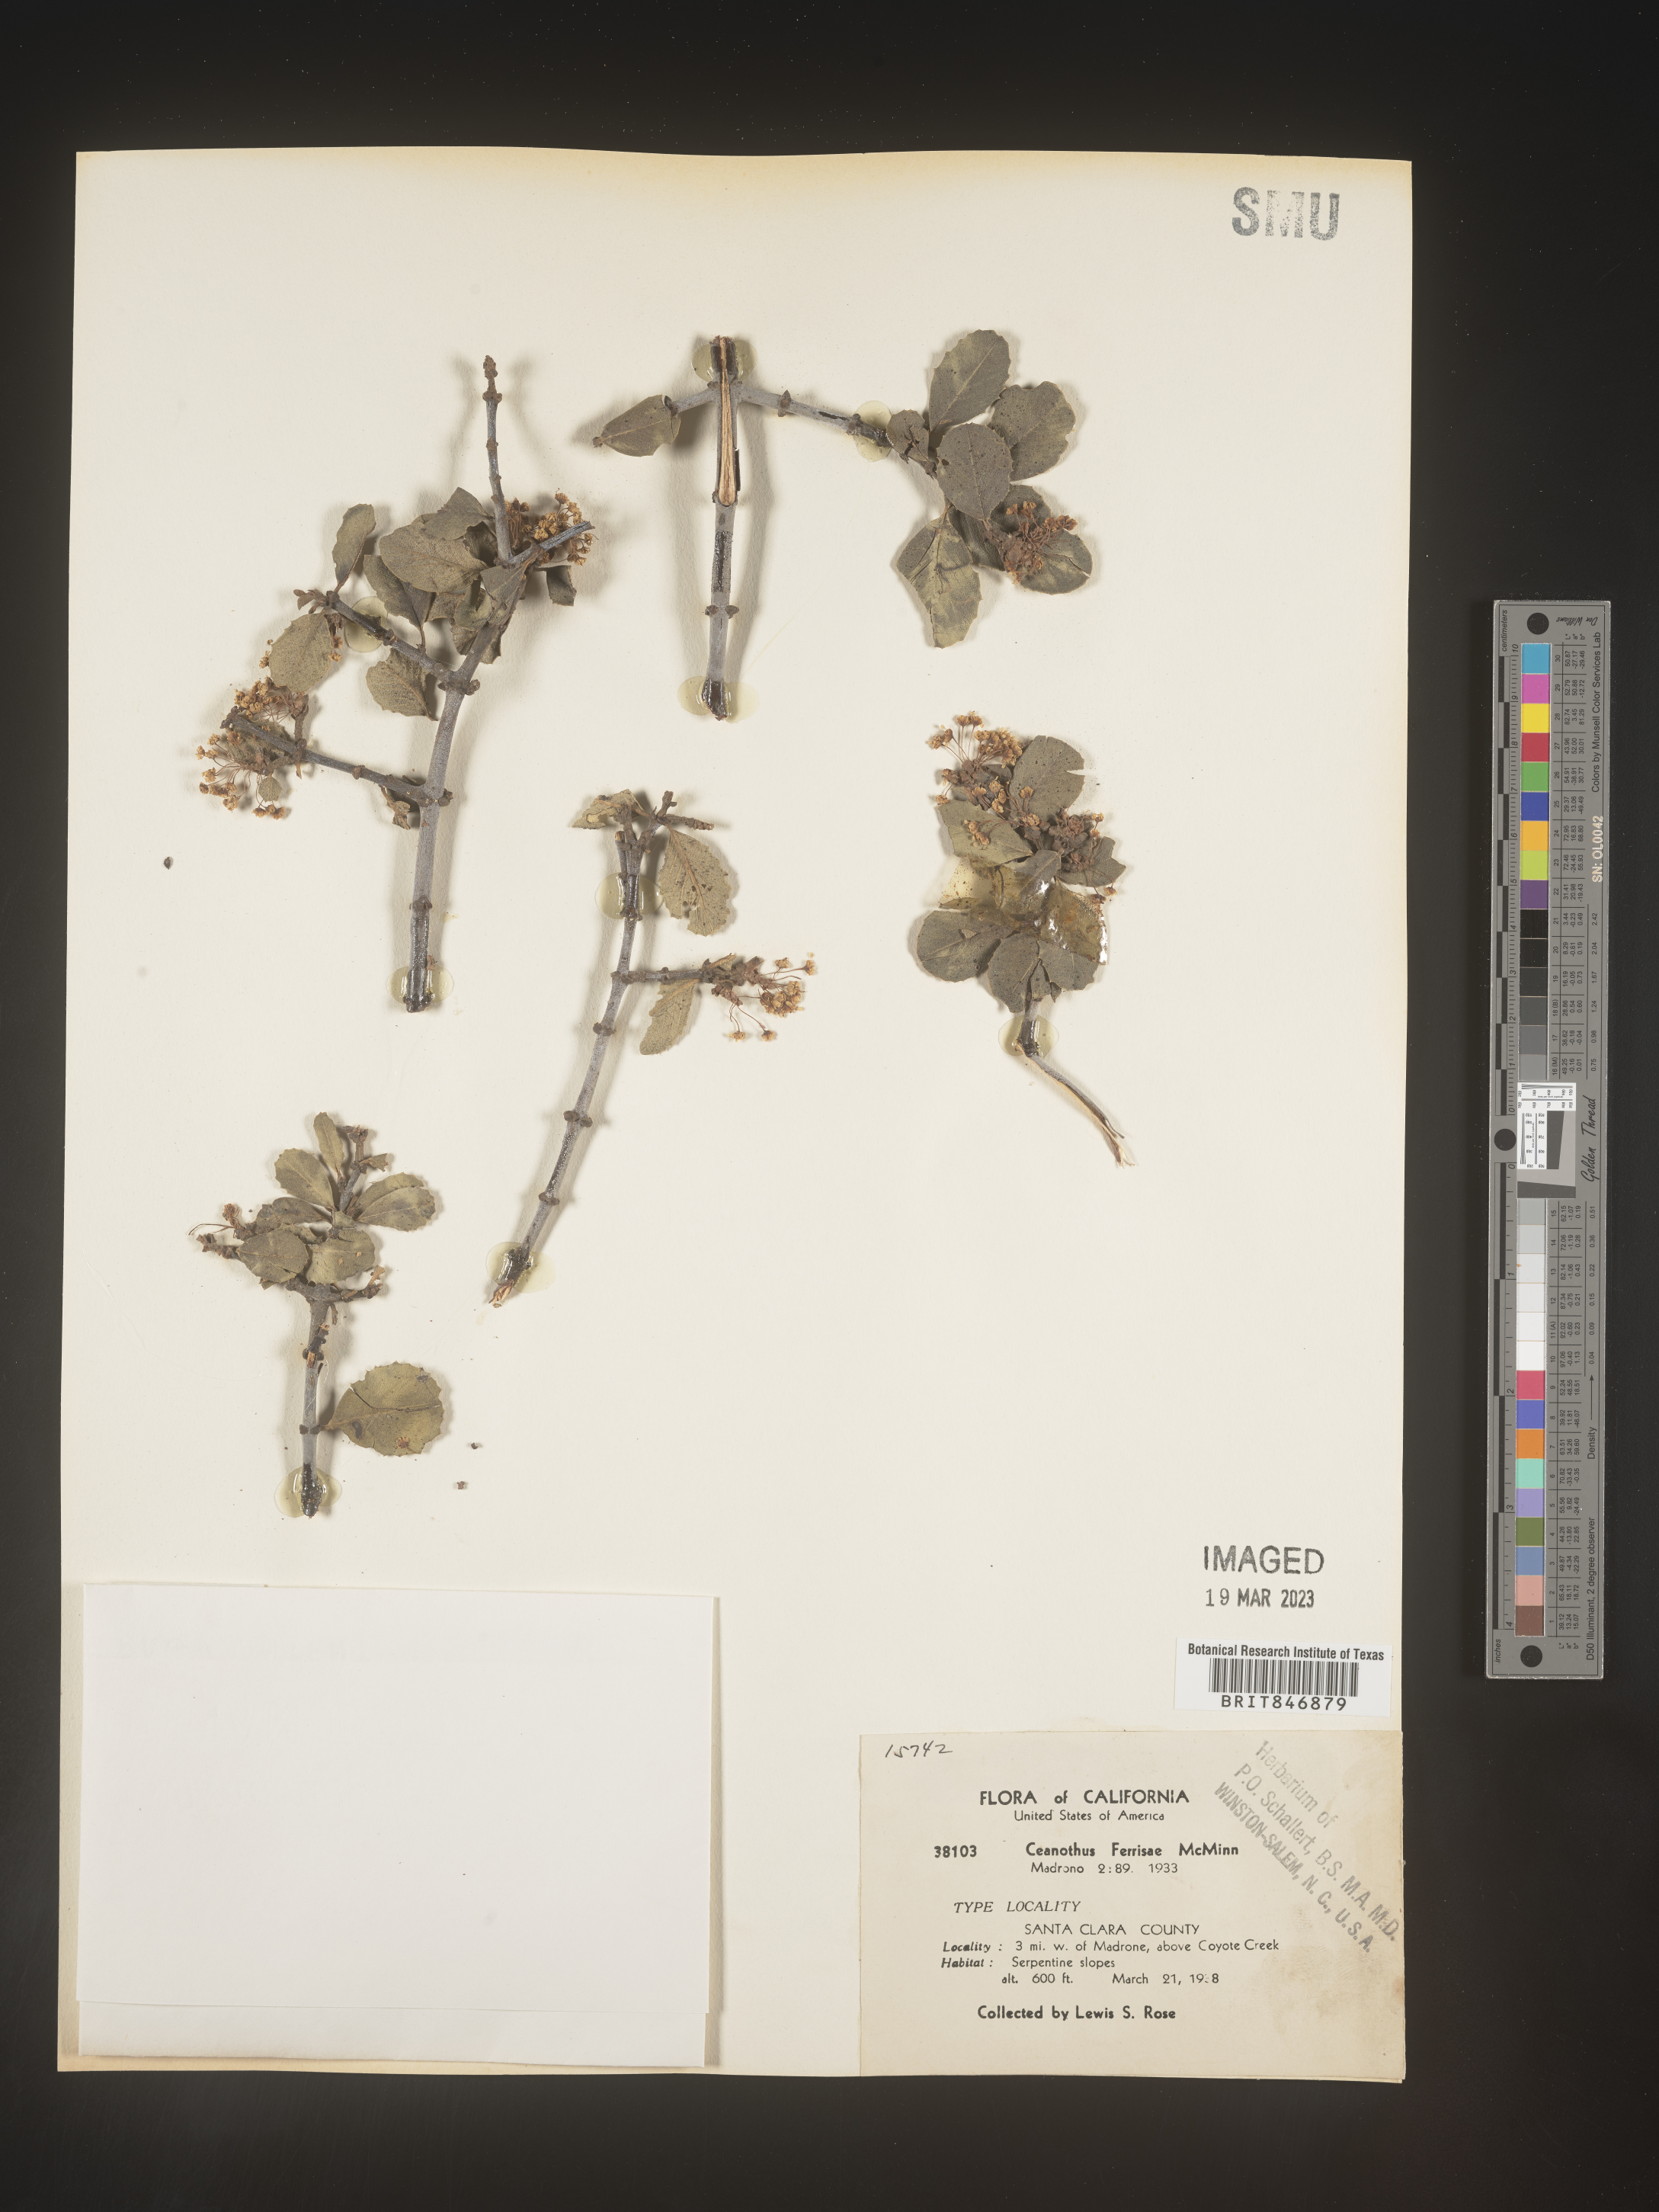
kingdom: Plantae
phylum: Tracheophyta
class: Magnoliopsida
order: Rosales
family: Rhamnaceae
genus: Ceanothus
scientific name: Ceanothus
